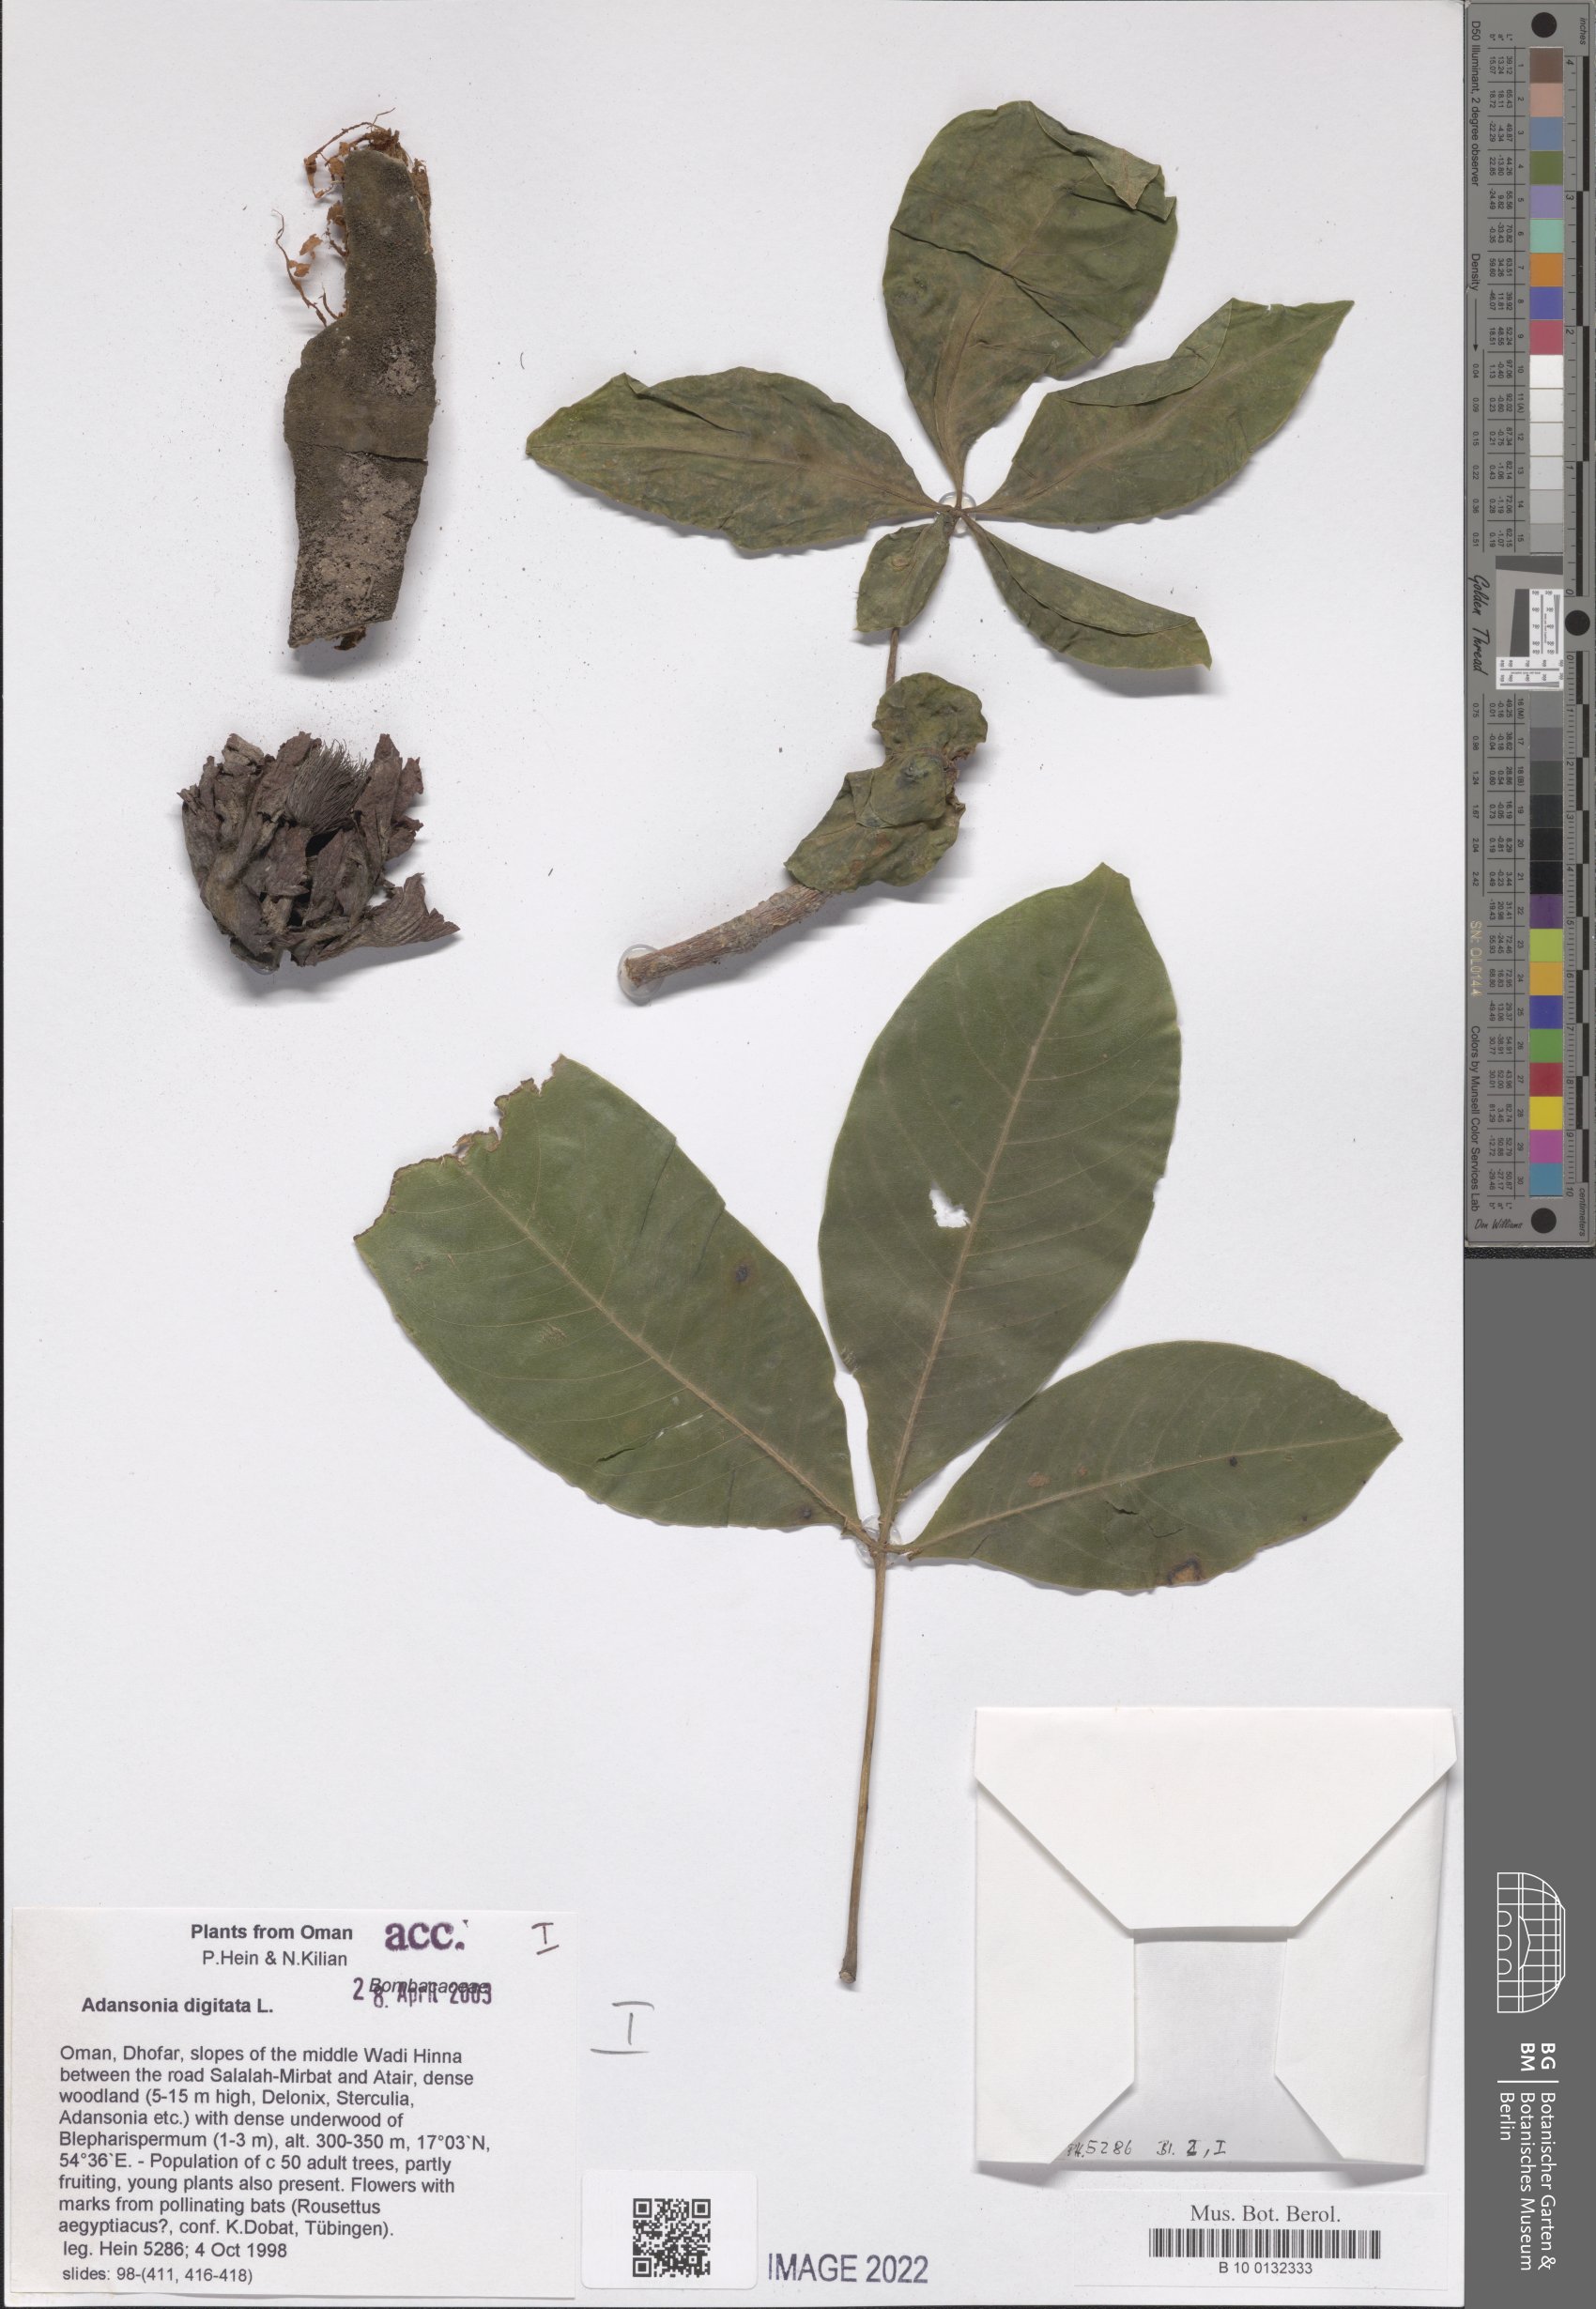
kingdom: Plantae
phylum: Tracheophyta
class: Magnoliopsida
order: Malvales
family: Malvaceae
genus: Adansonia
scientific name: Adansonia digitata
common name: Dead-rat-tree
